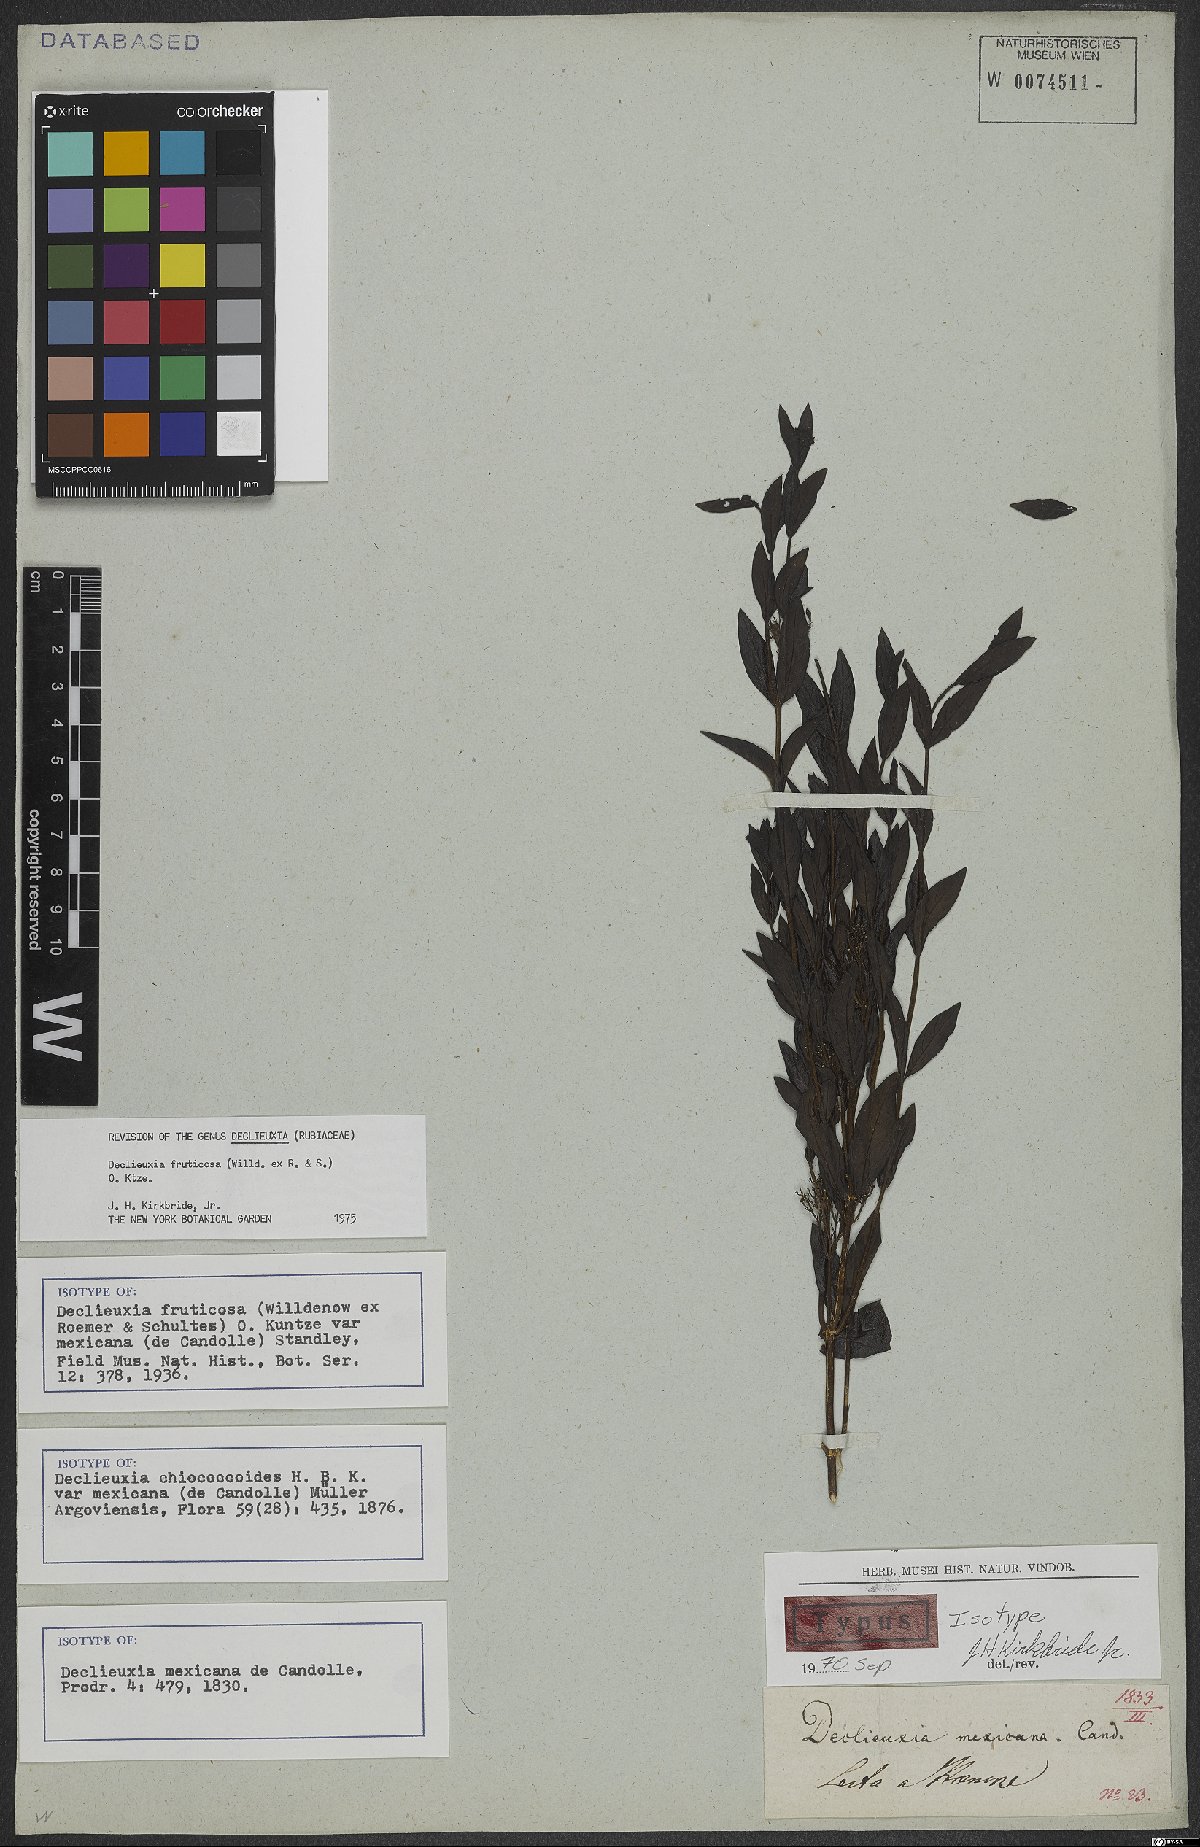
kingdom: Plantae
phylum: Tracheophyta
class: Magnoliopsida
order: Gentianales
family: Rubiaceae
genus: Declieuxia
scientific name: Declieuxia fruticosa
